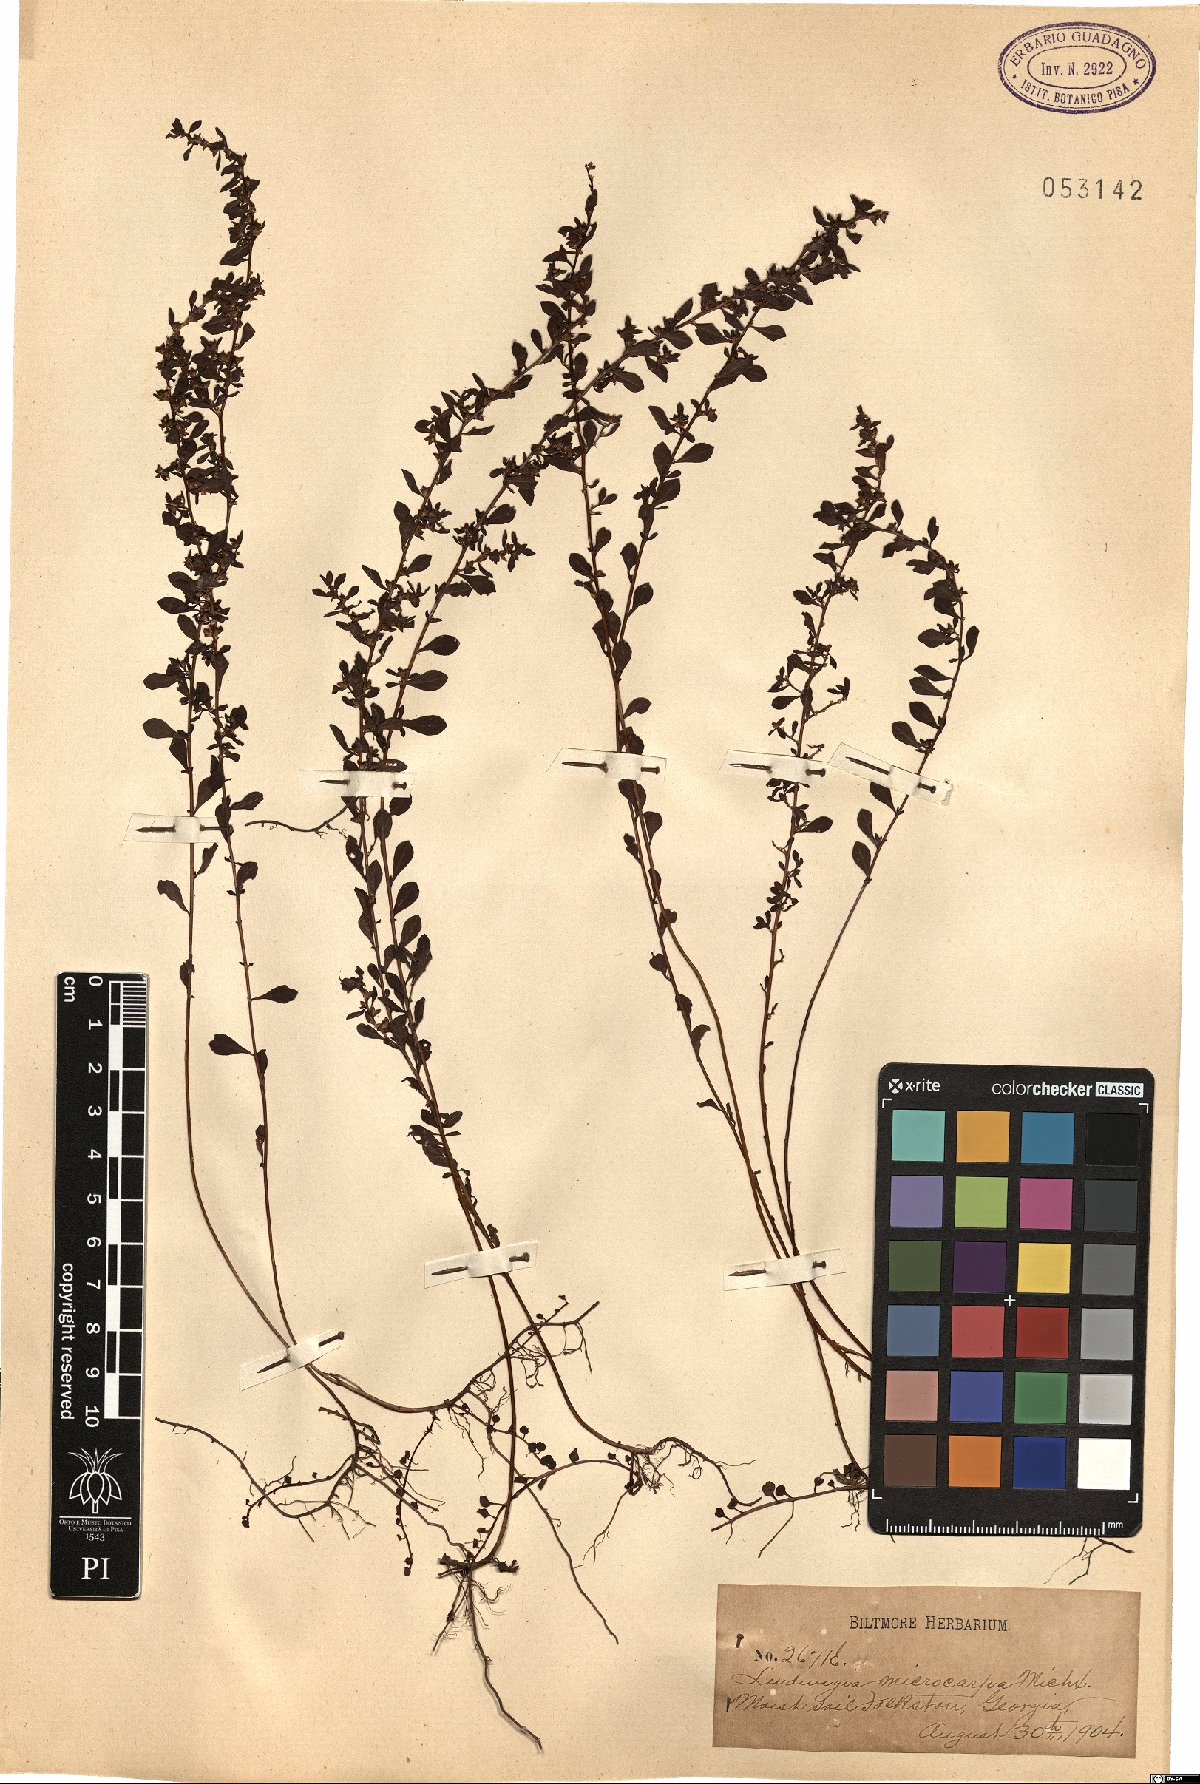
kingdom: Plantae
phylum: Tracheophyta
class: Magnoliopsida
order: Myrtales
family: Onagraceae
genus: Ludwigia
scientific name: Ludwigia microcarpa
